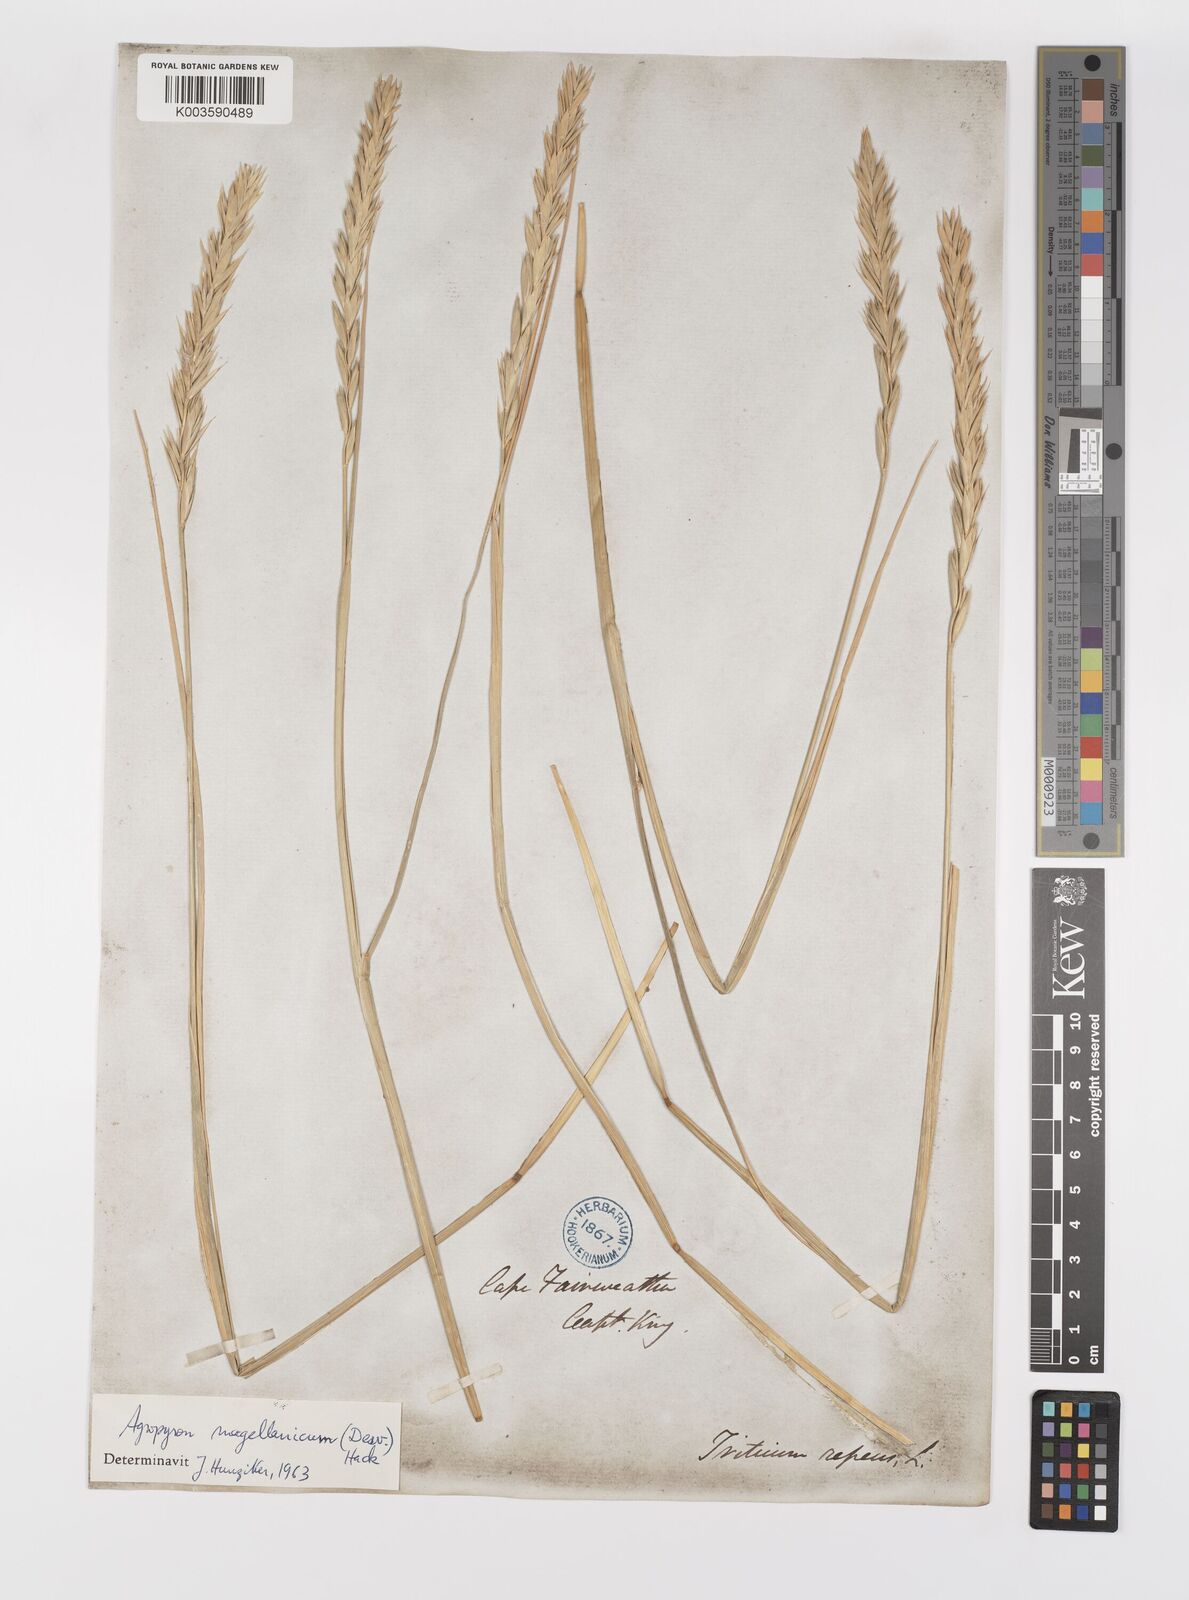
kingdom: Plantae
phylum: Tracheophyta
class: Liliopsida
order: Poales
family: Poaceae
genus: Elymus
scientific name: Elymus magellanicus
